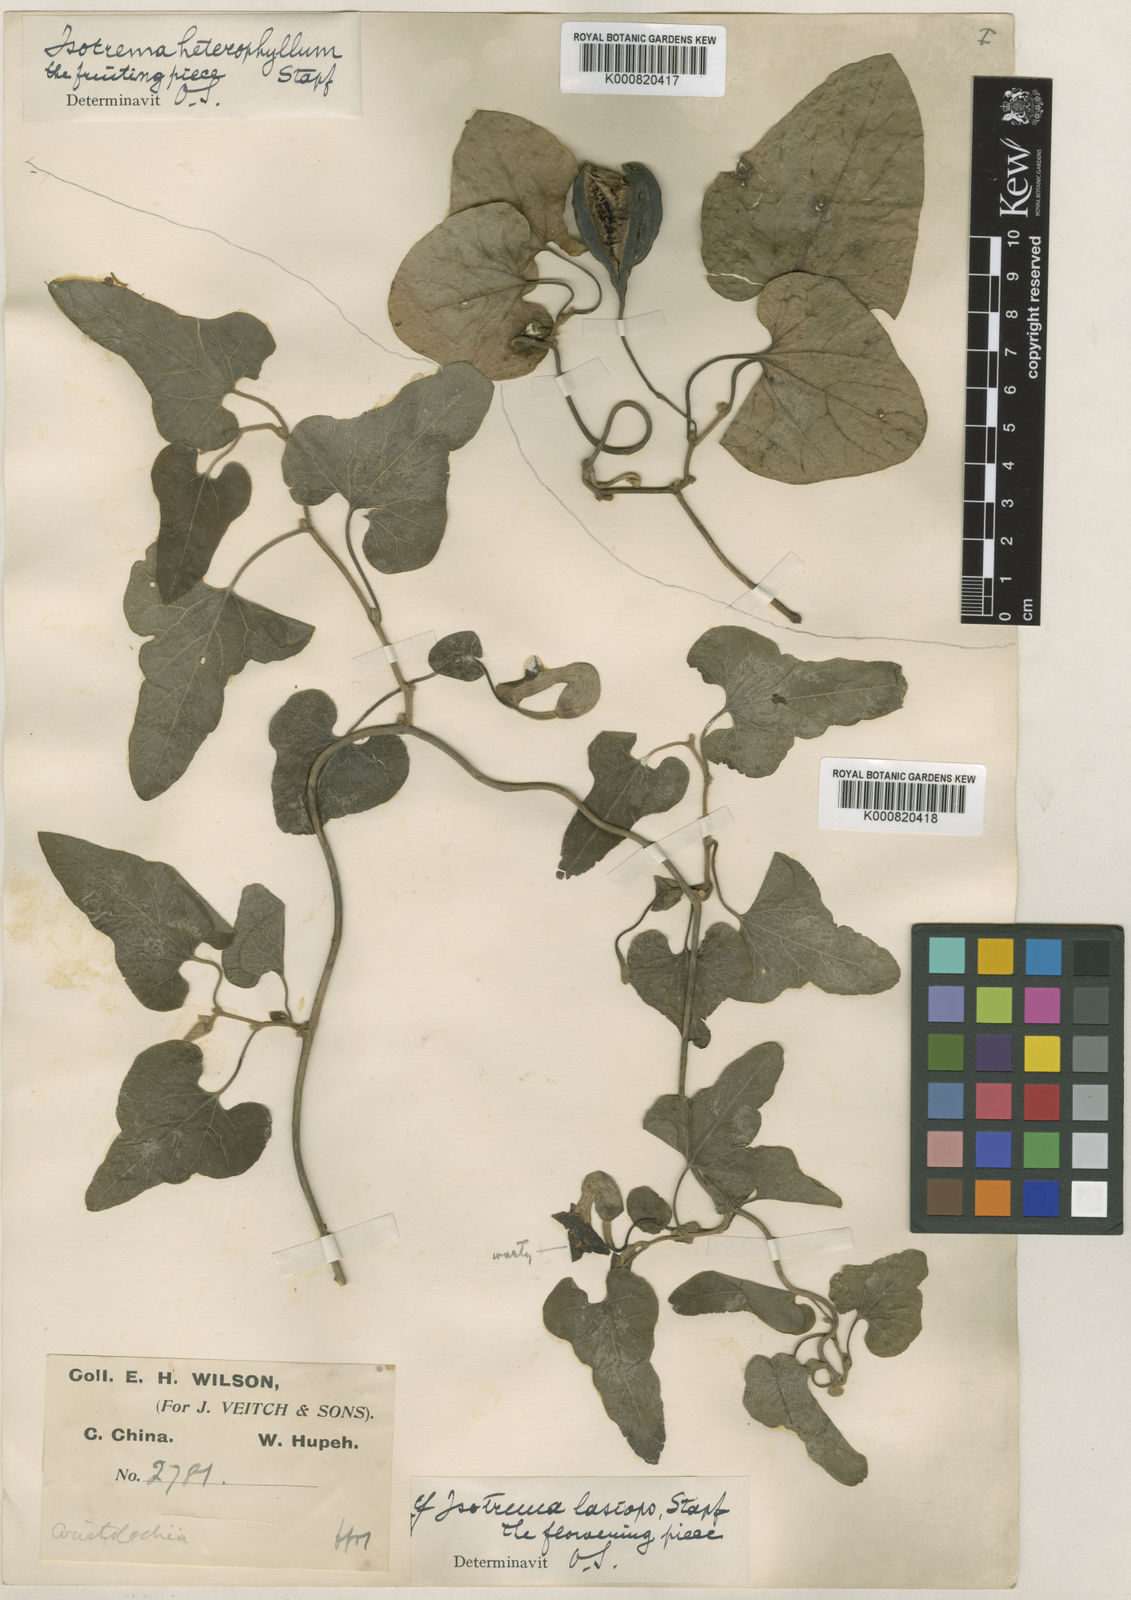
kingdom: Plantae
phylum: Tracheophyta
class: Magnoliopsida
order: Piperales
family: Aristolochiaceae
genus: Isotrema
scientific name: Isotrema kaempferi
